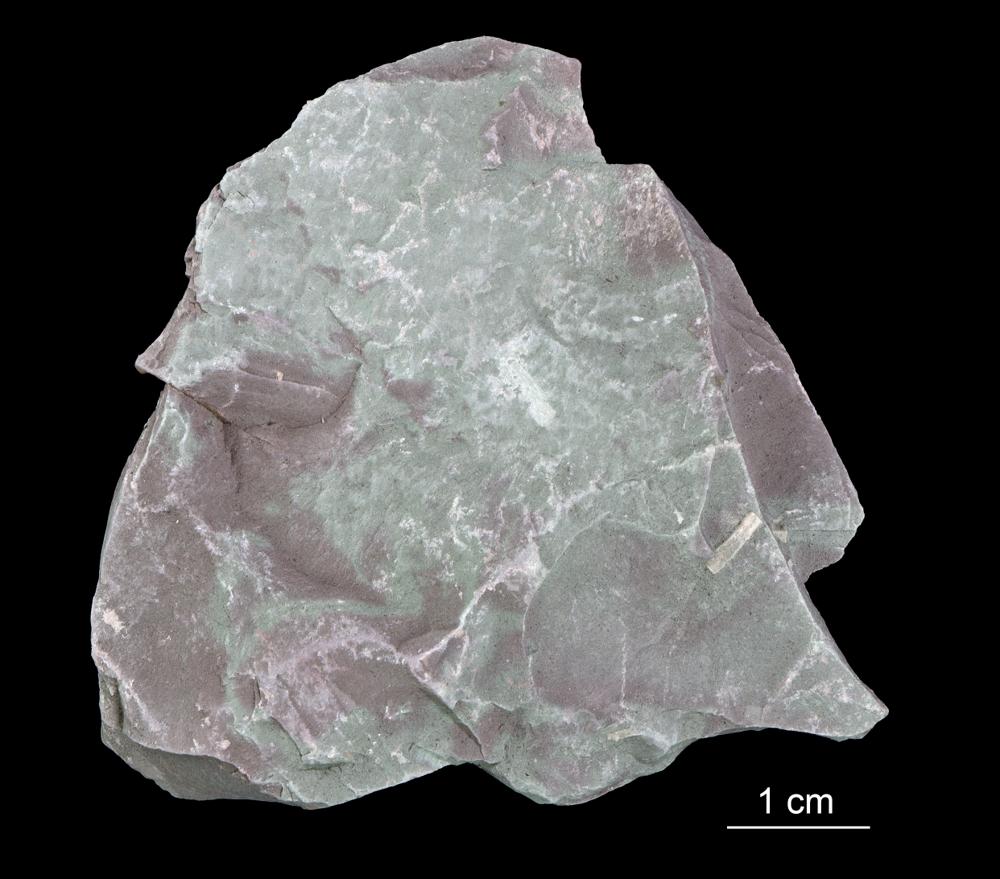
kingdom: Chromista
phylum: Foraminifera
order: Astrorhizida
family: Hyperamminidae
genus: Platysolenites
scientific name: Platysolenites antiquissimus
